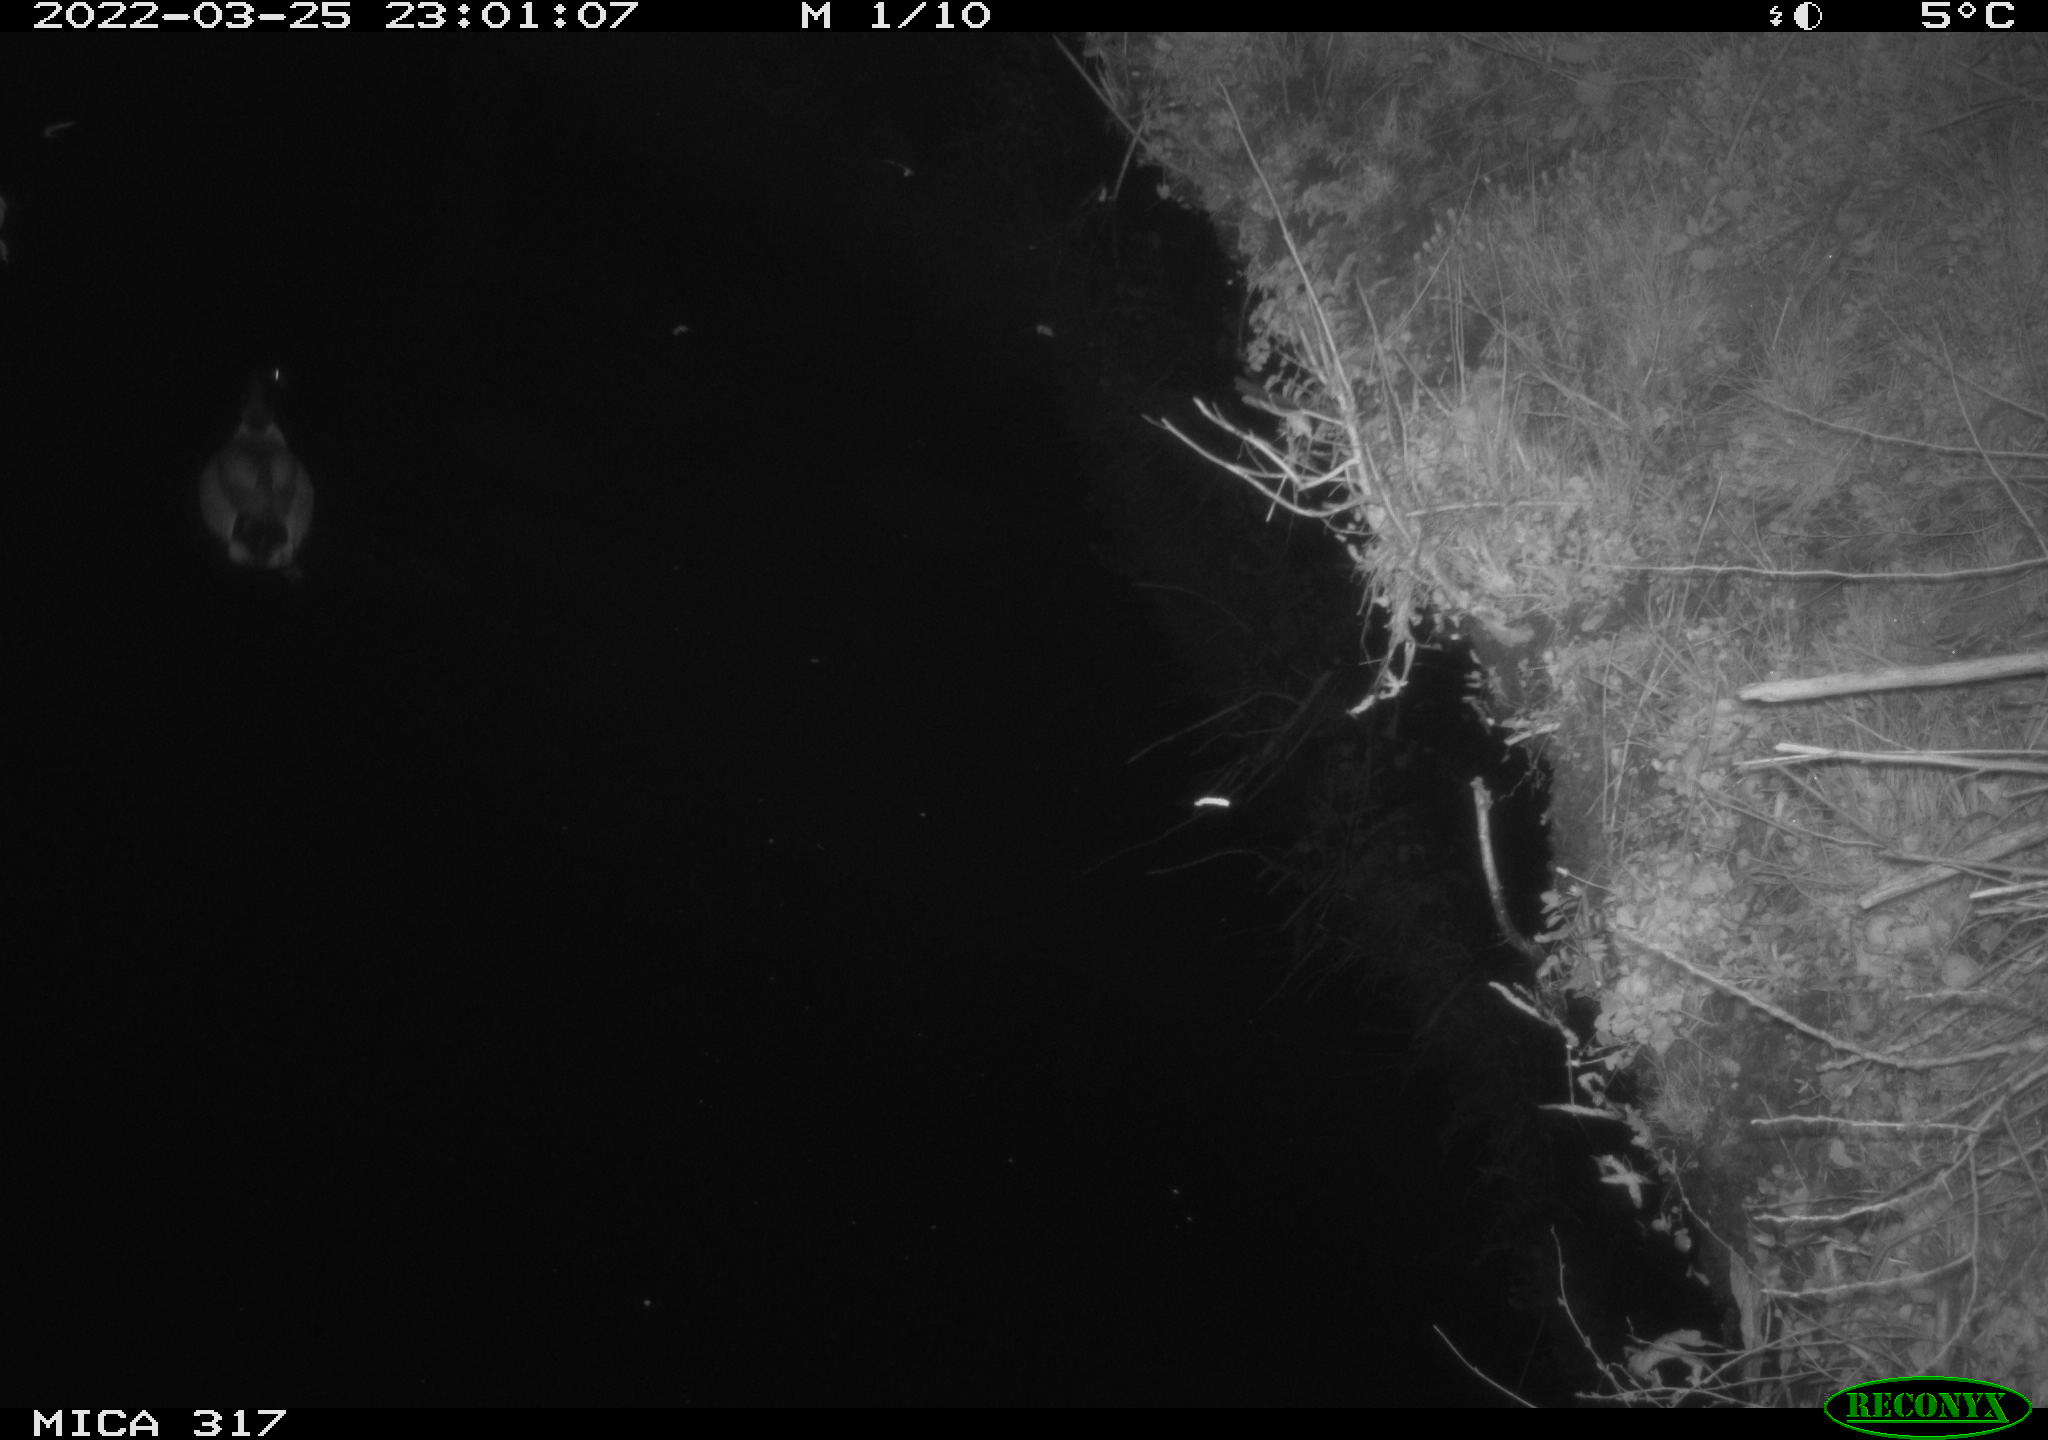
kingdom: Animalia
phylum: Chordata
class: Aves
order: Anseriformes
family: Anatidae
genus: Anas
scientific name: Anas platyrhynchos
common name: Mallard
